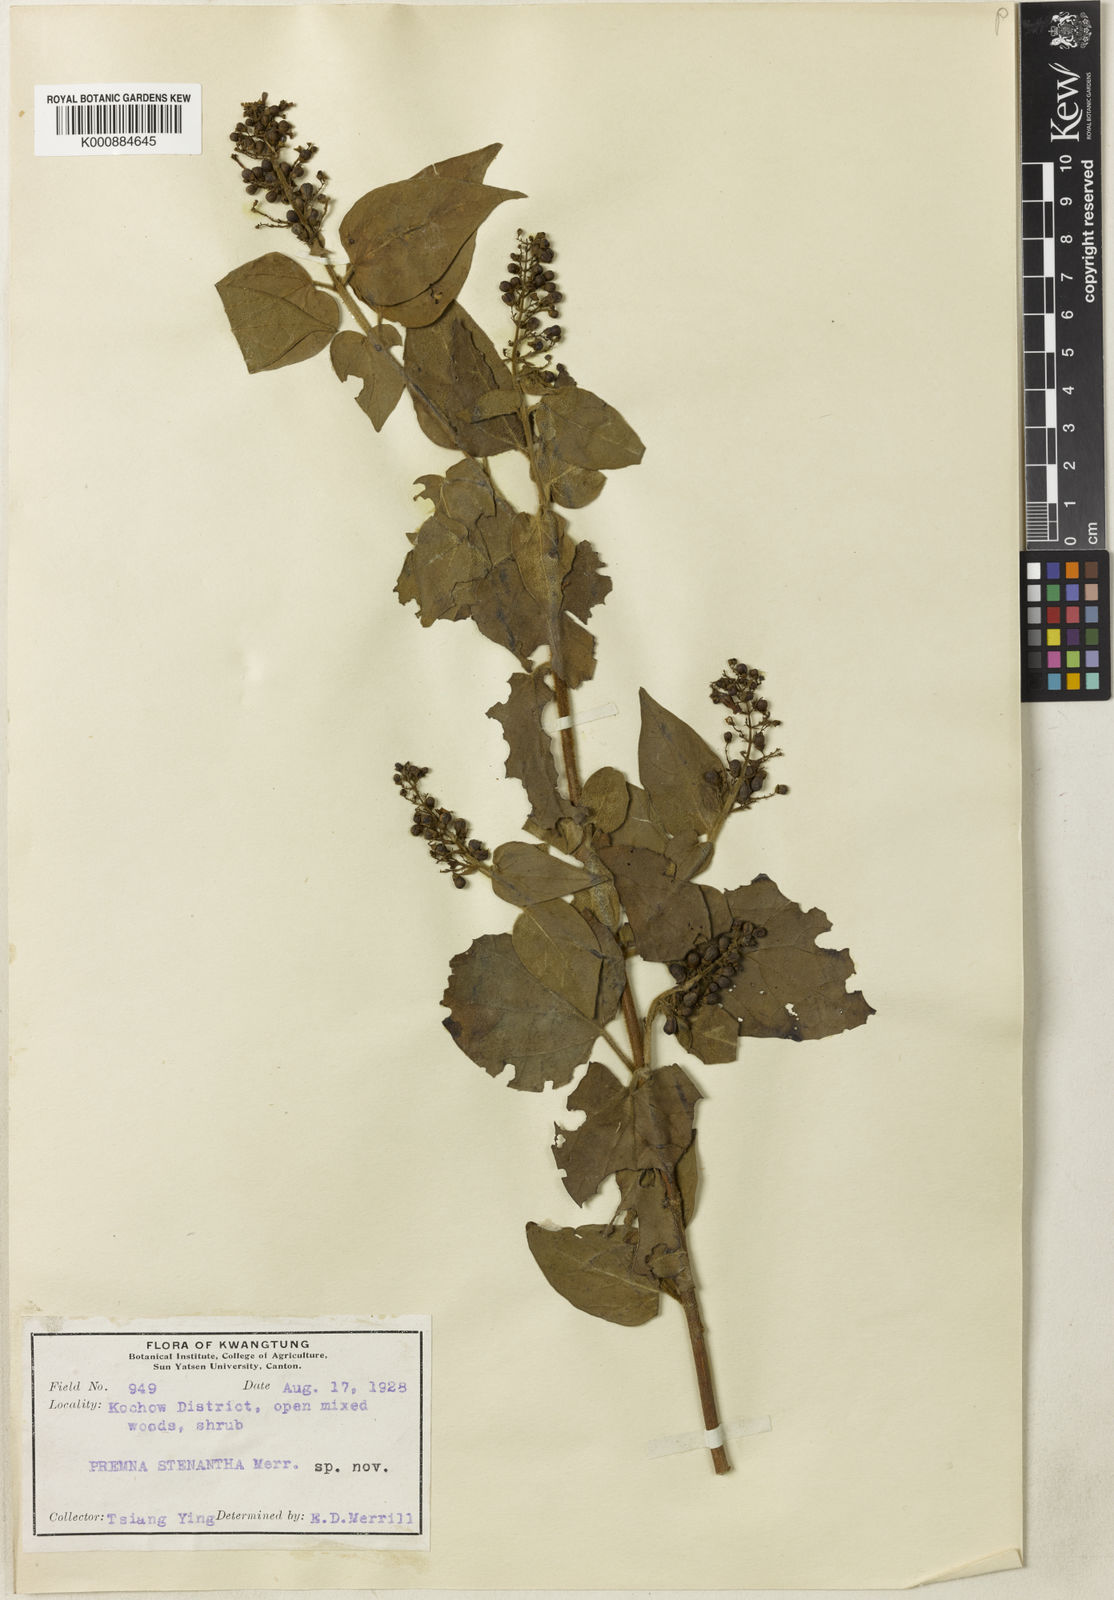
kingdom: Plantae
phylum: Tracheophyta
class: Magnoliopsida
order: Lamiales
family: Lamiaceae
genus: Premna
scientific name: Premna stenantha
